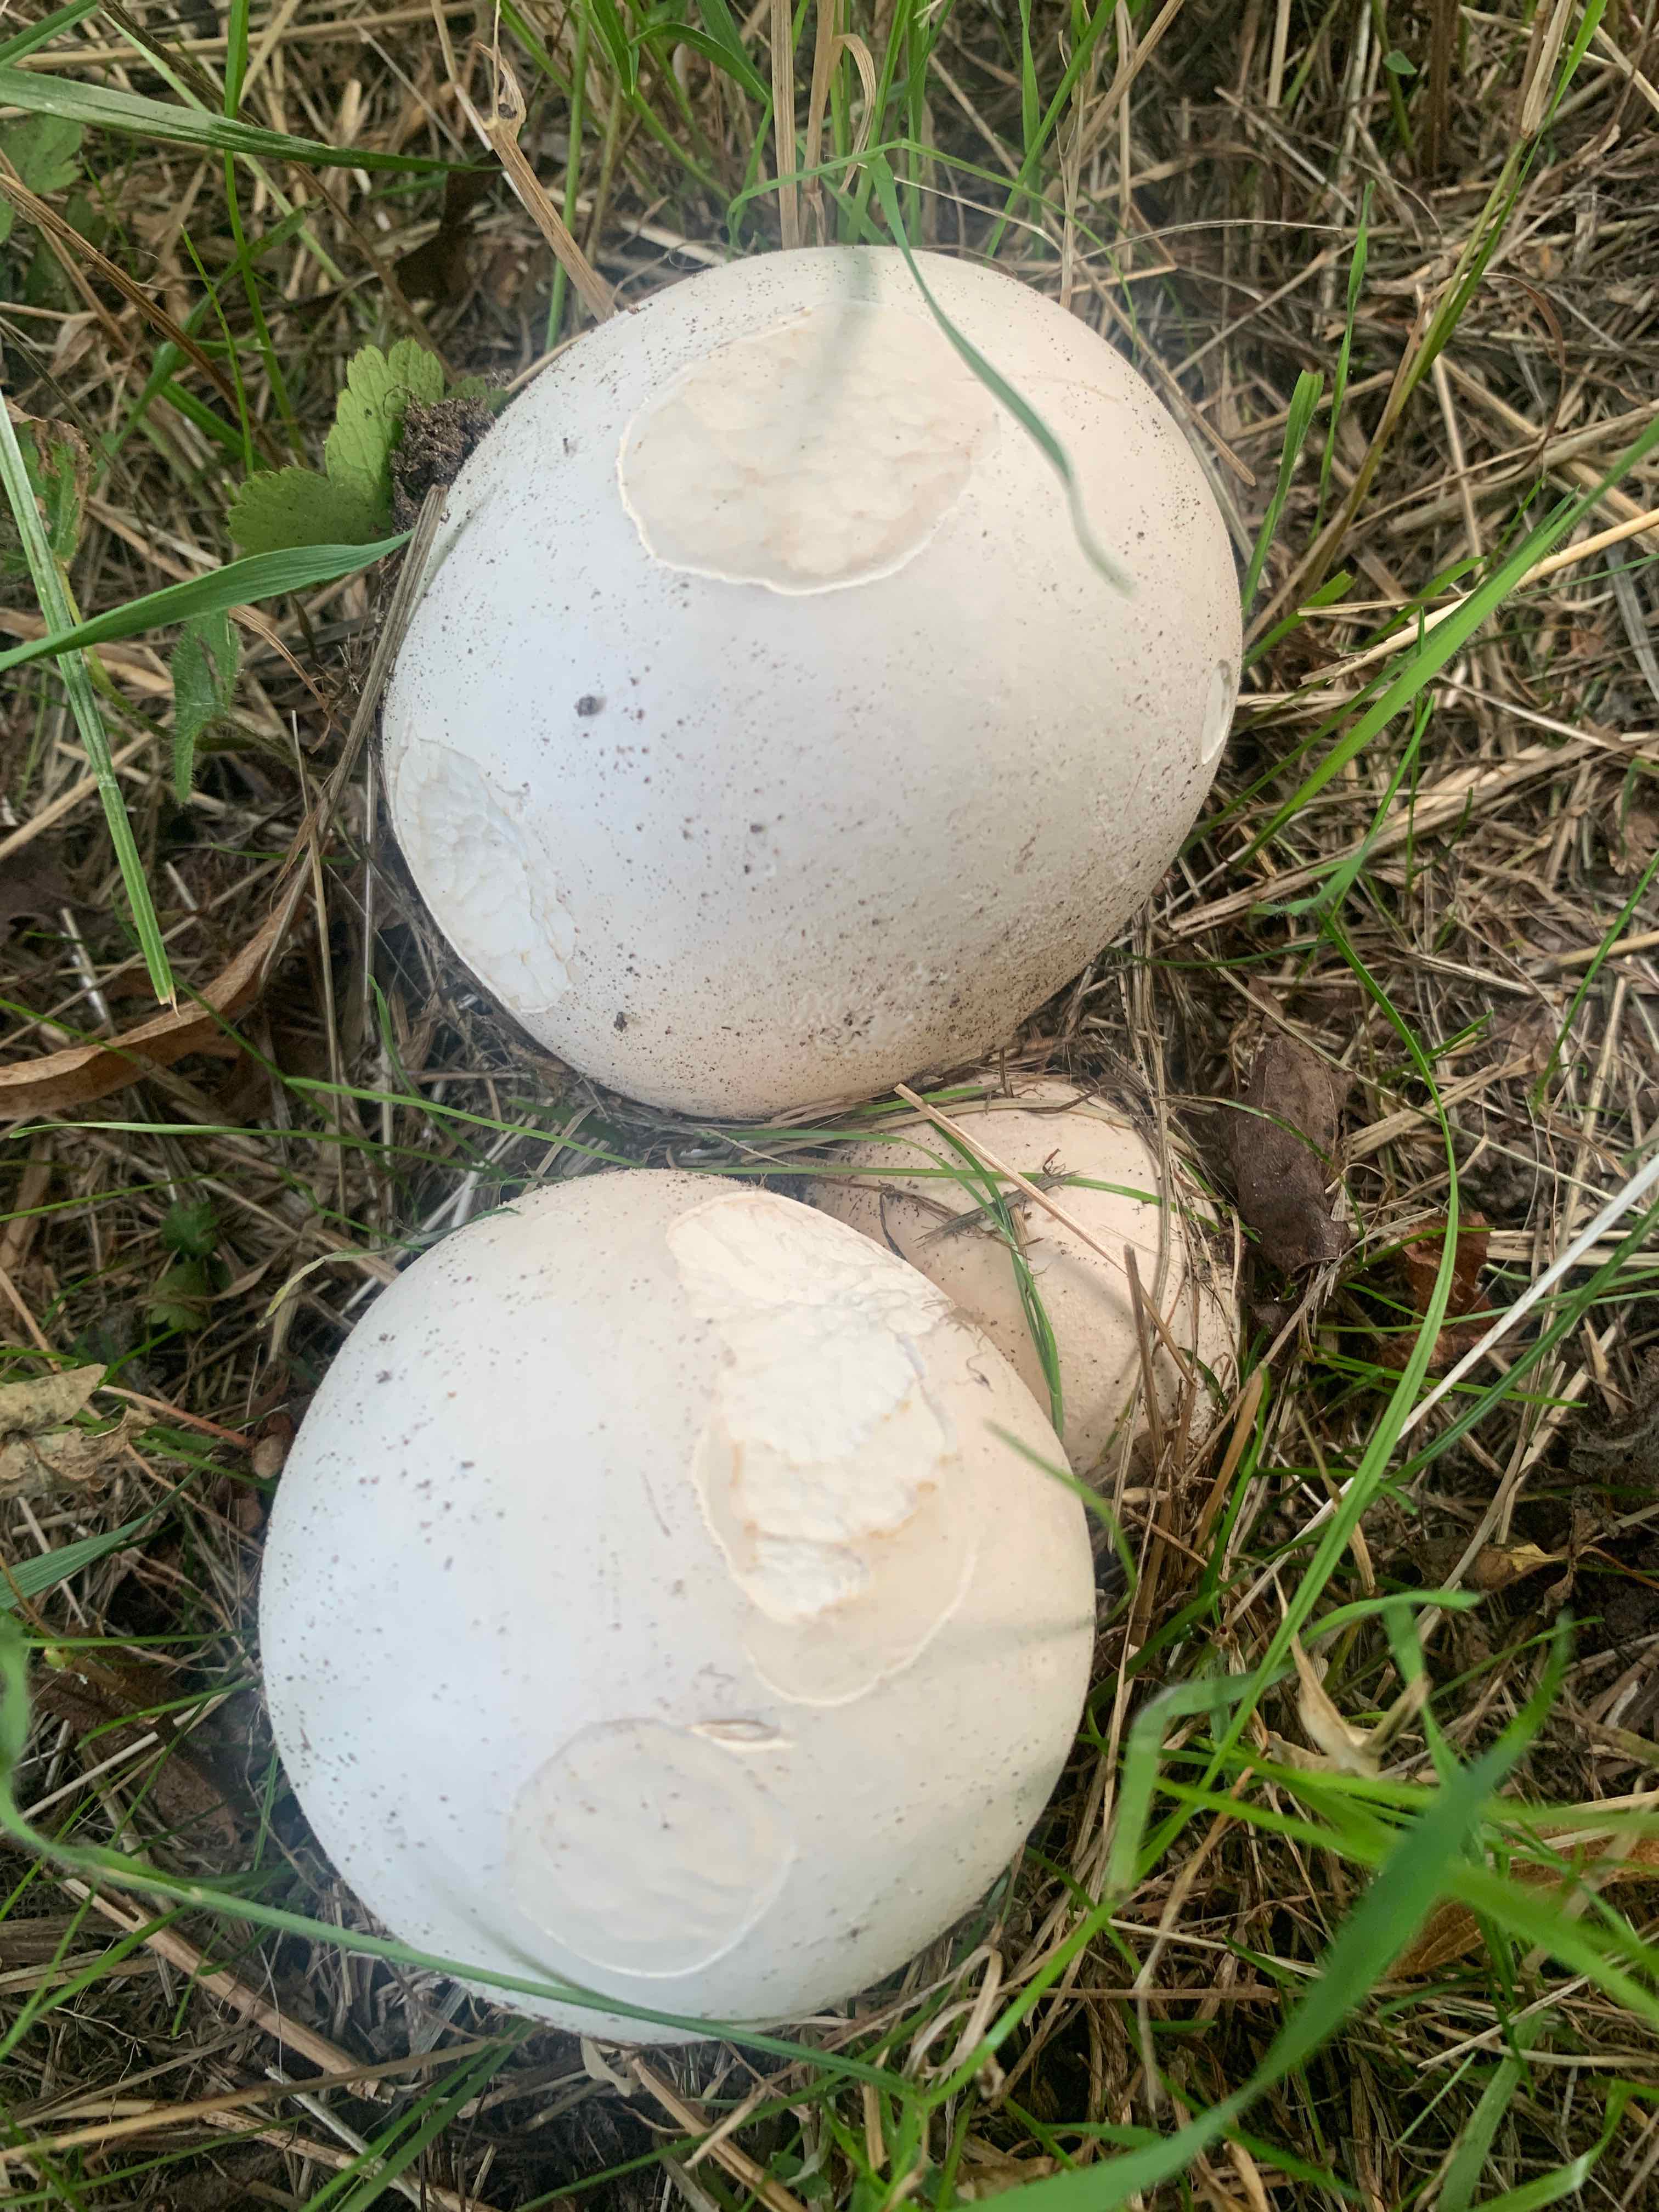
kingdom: Fungi
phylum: Basidiomycota
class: Agaricomycetes
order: Agaricales
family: Lycoperdaceae
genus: Calvatia
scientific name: Calvatia gigantea
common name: kæmpestøvbold
